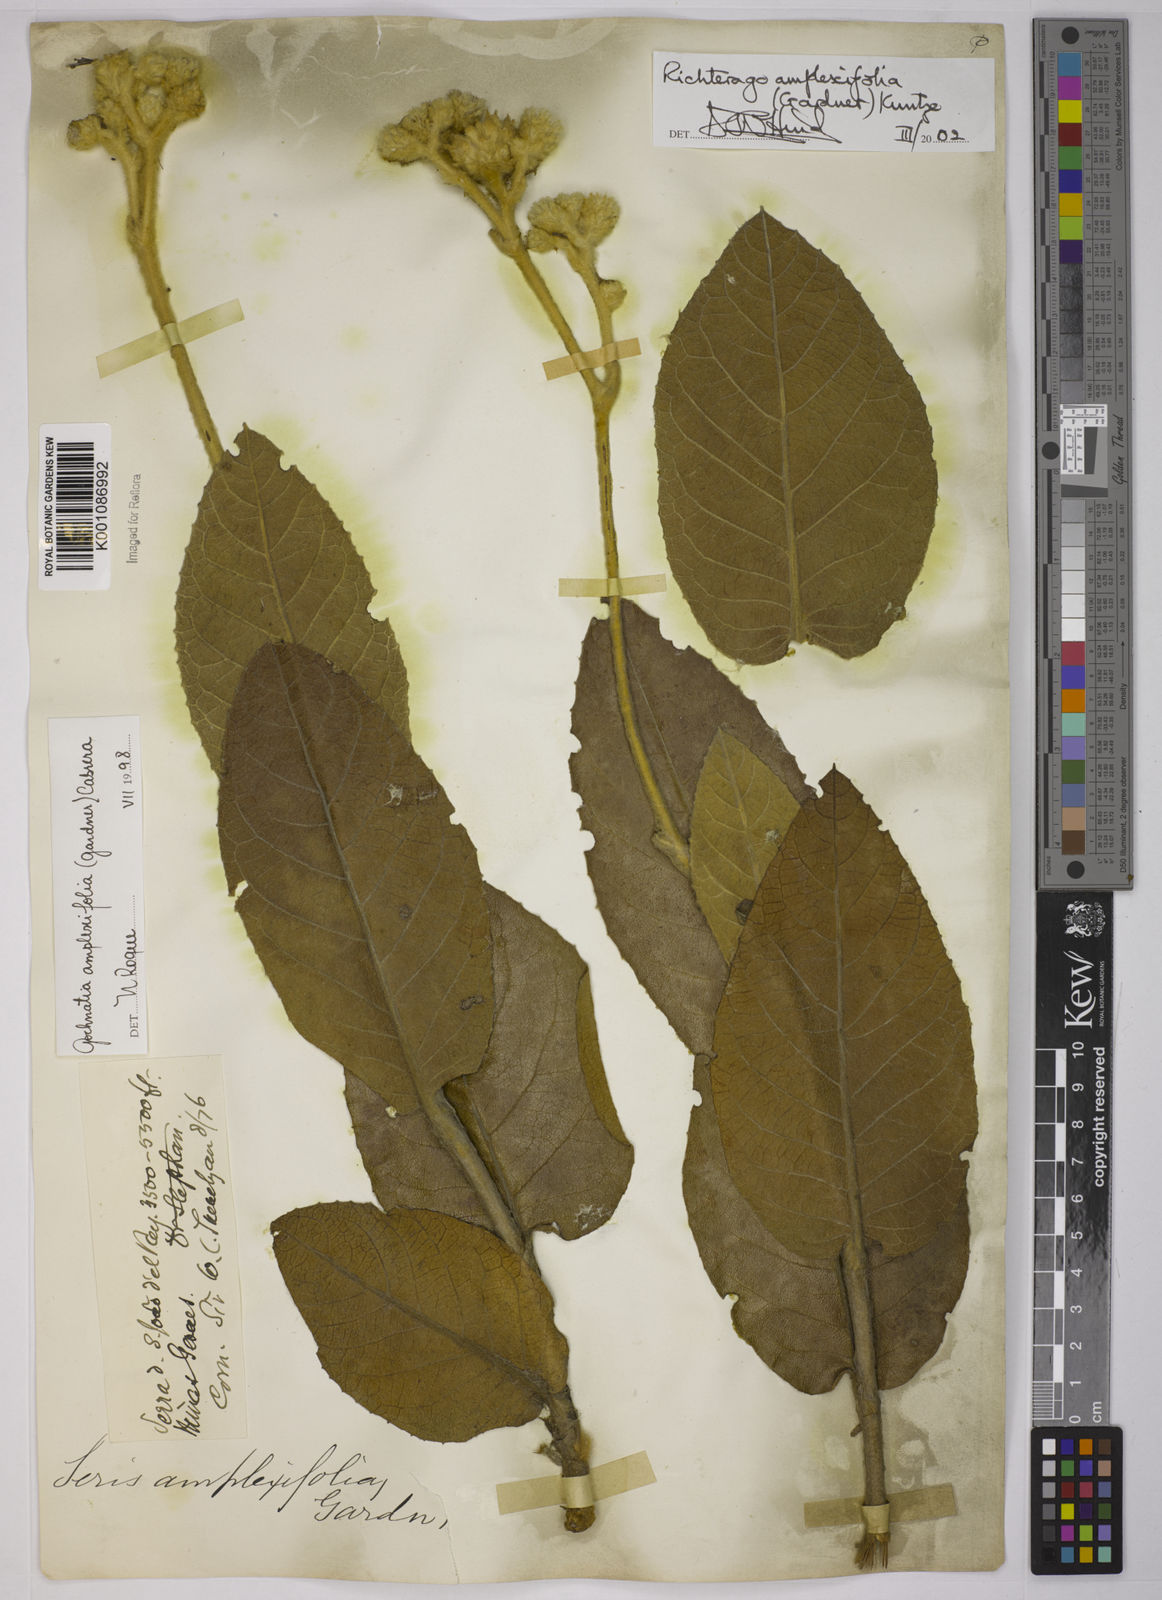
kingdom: Plantae
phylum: Tracheophyta
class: Magnoliopsida
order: Asterales
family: Asteraceae
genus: Richterago
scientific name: Richterago amplexifolia
